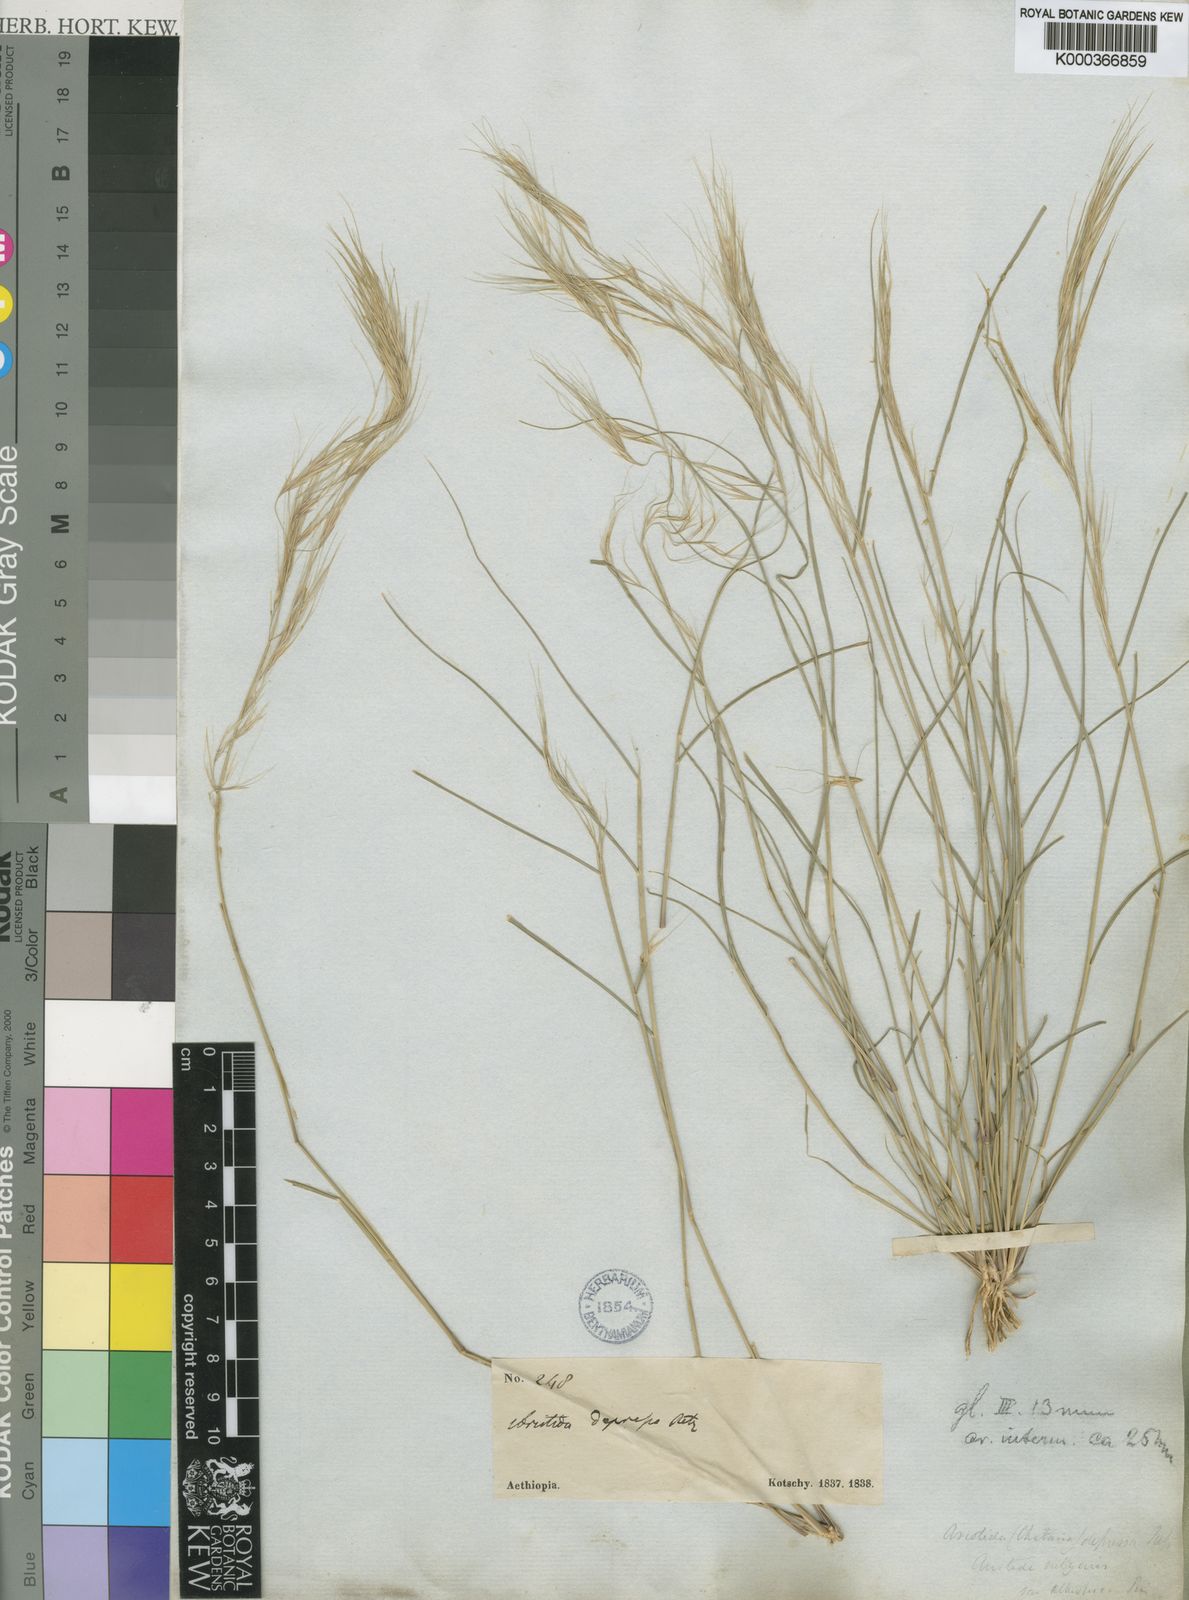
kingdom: Plantae
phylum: Tracheophyta
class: Liliopsida
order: Poales
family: Poaceae
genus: Aristida
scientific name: Aristida adscensionis
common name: Sixweeks threeawn
